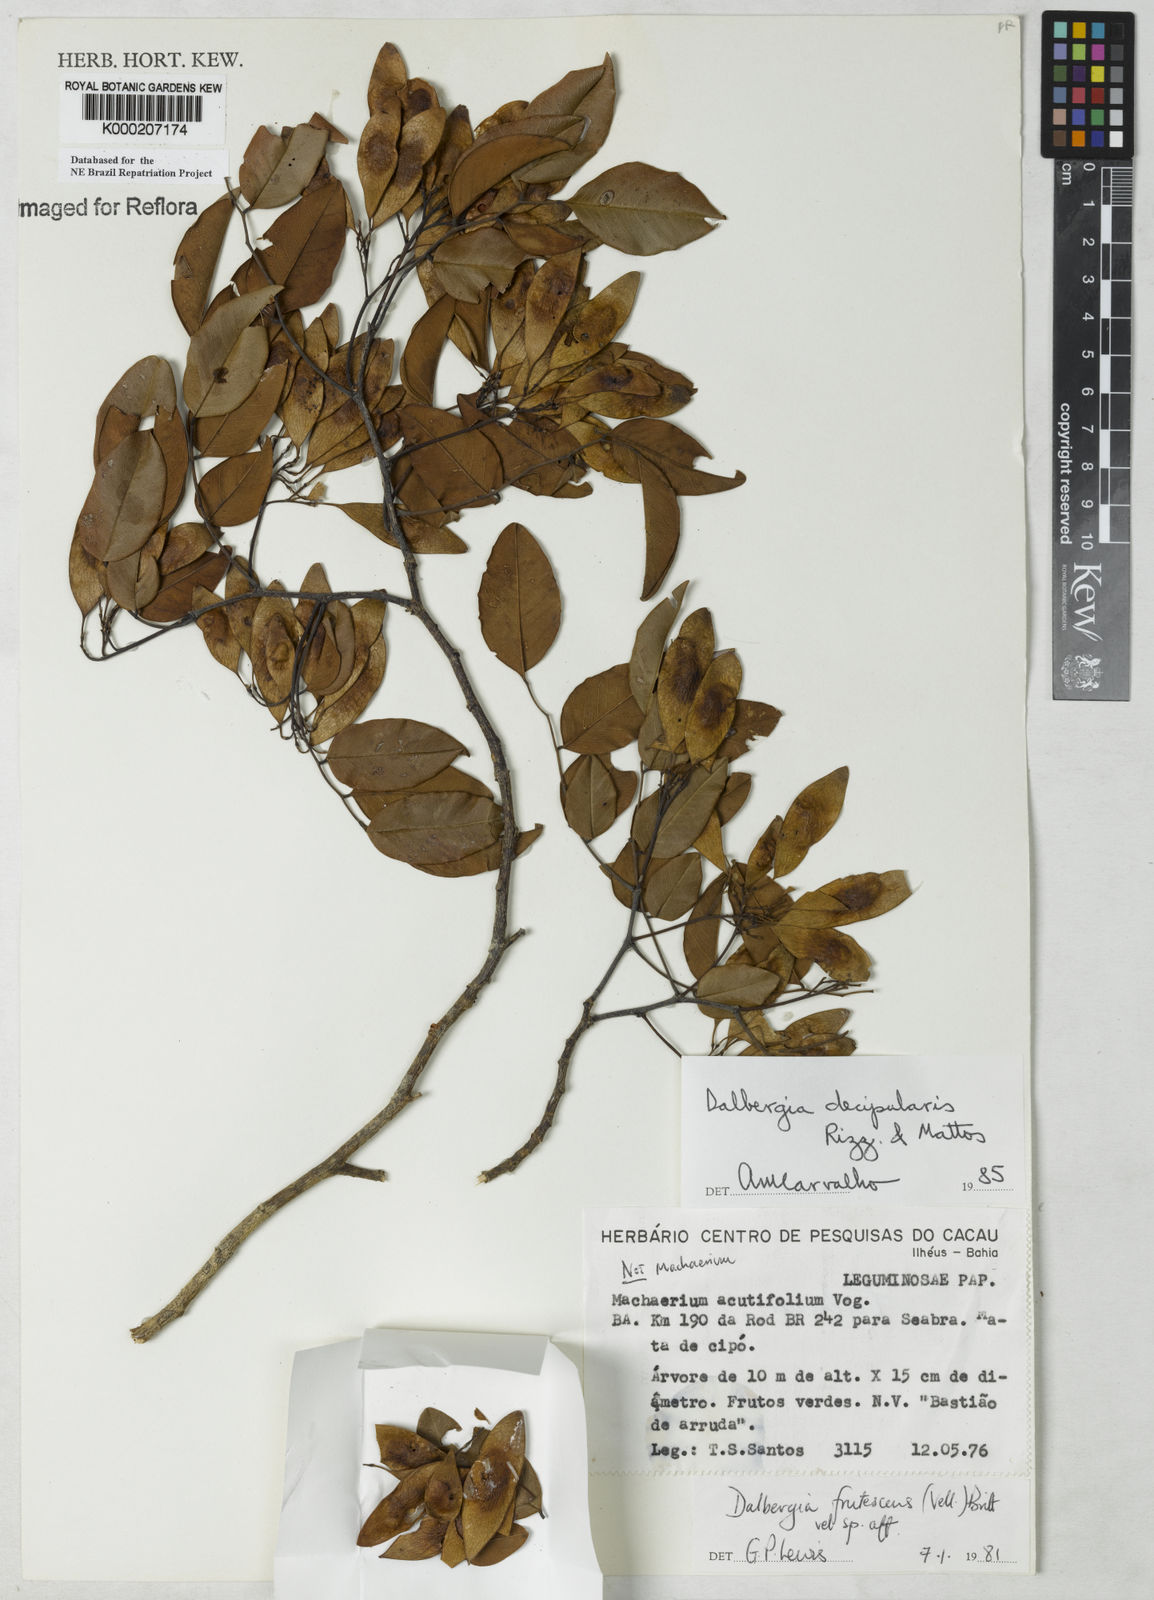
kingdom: Plantae
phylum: Tracheophyta
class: Magnoliopsida
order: Fabales
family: Fabaceae
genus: Dalbergia
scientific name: Dalbergia decipularis
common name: Brazilian tulipwood
